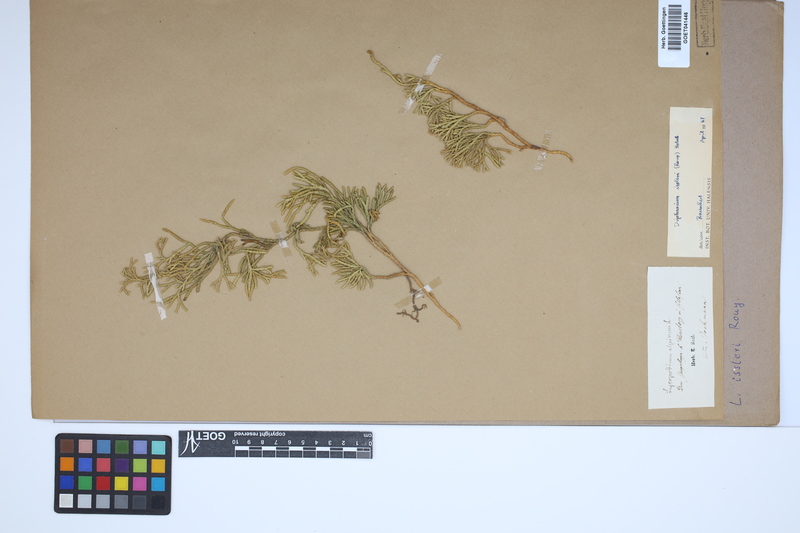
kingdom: Plantae
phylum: Tracheophyta
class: Lycopodiopsida
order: Lycopodiales
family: Lycopodiaceae
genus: Diphasiastrum
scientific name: Diphasiastrum issleri
